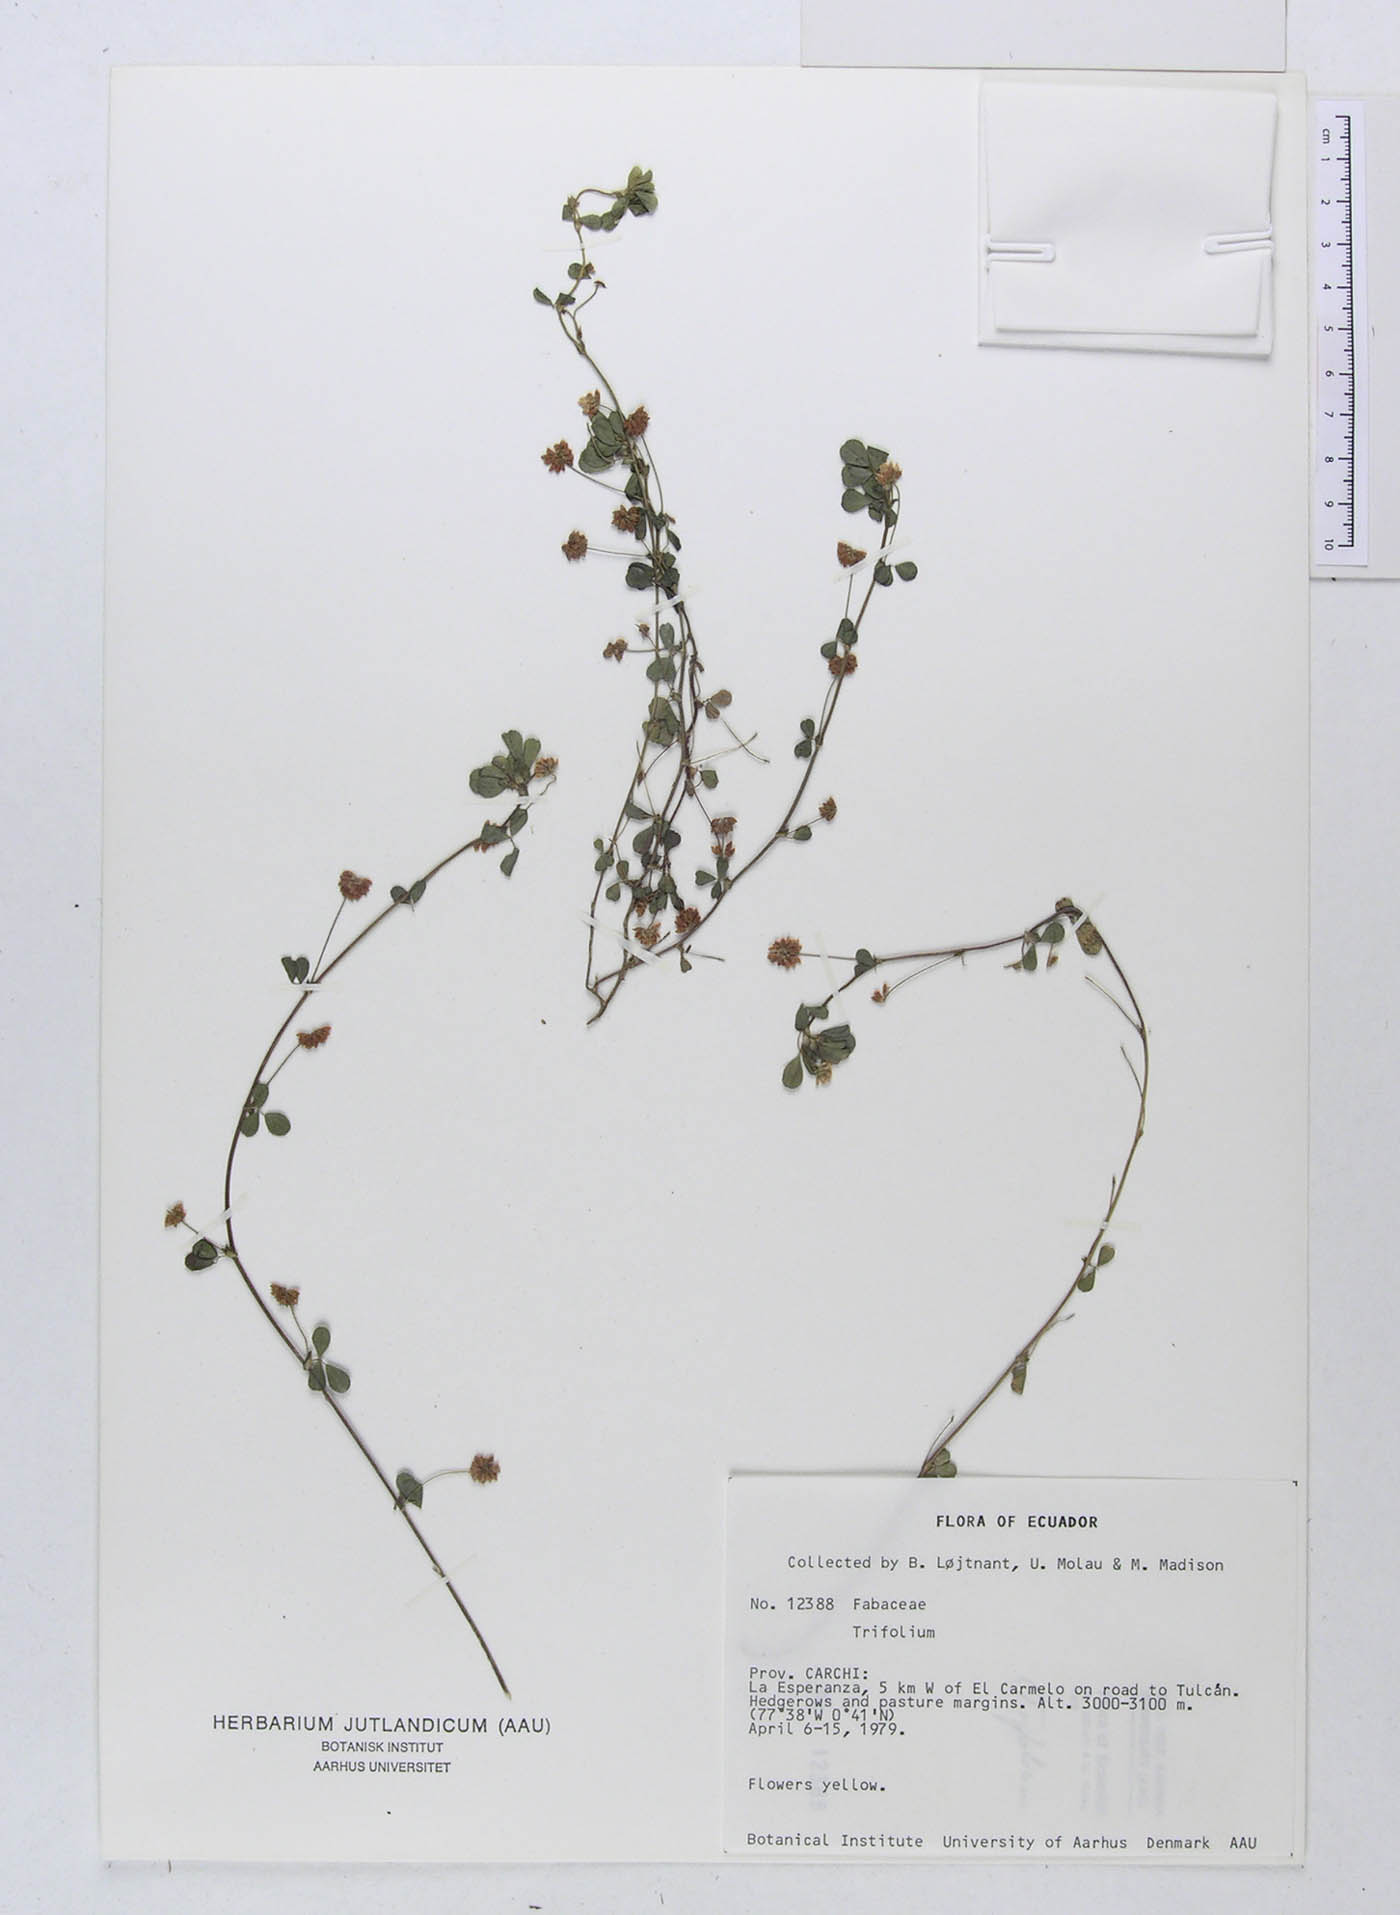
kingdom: Plantae
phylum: Tracheophyta
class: Magnoliopsida
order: Fabales
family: Fabaceae
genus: Trifolium
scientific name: Trifolium
